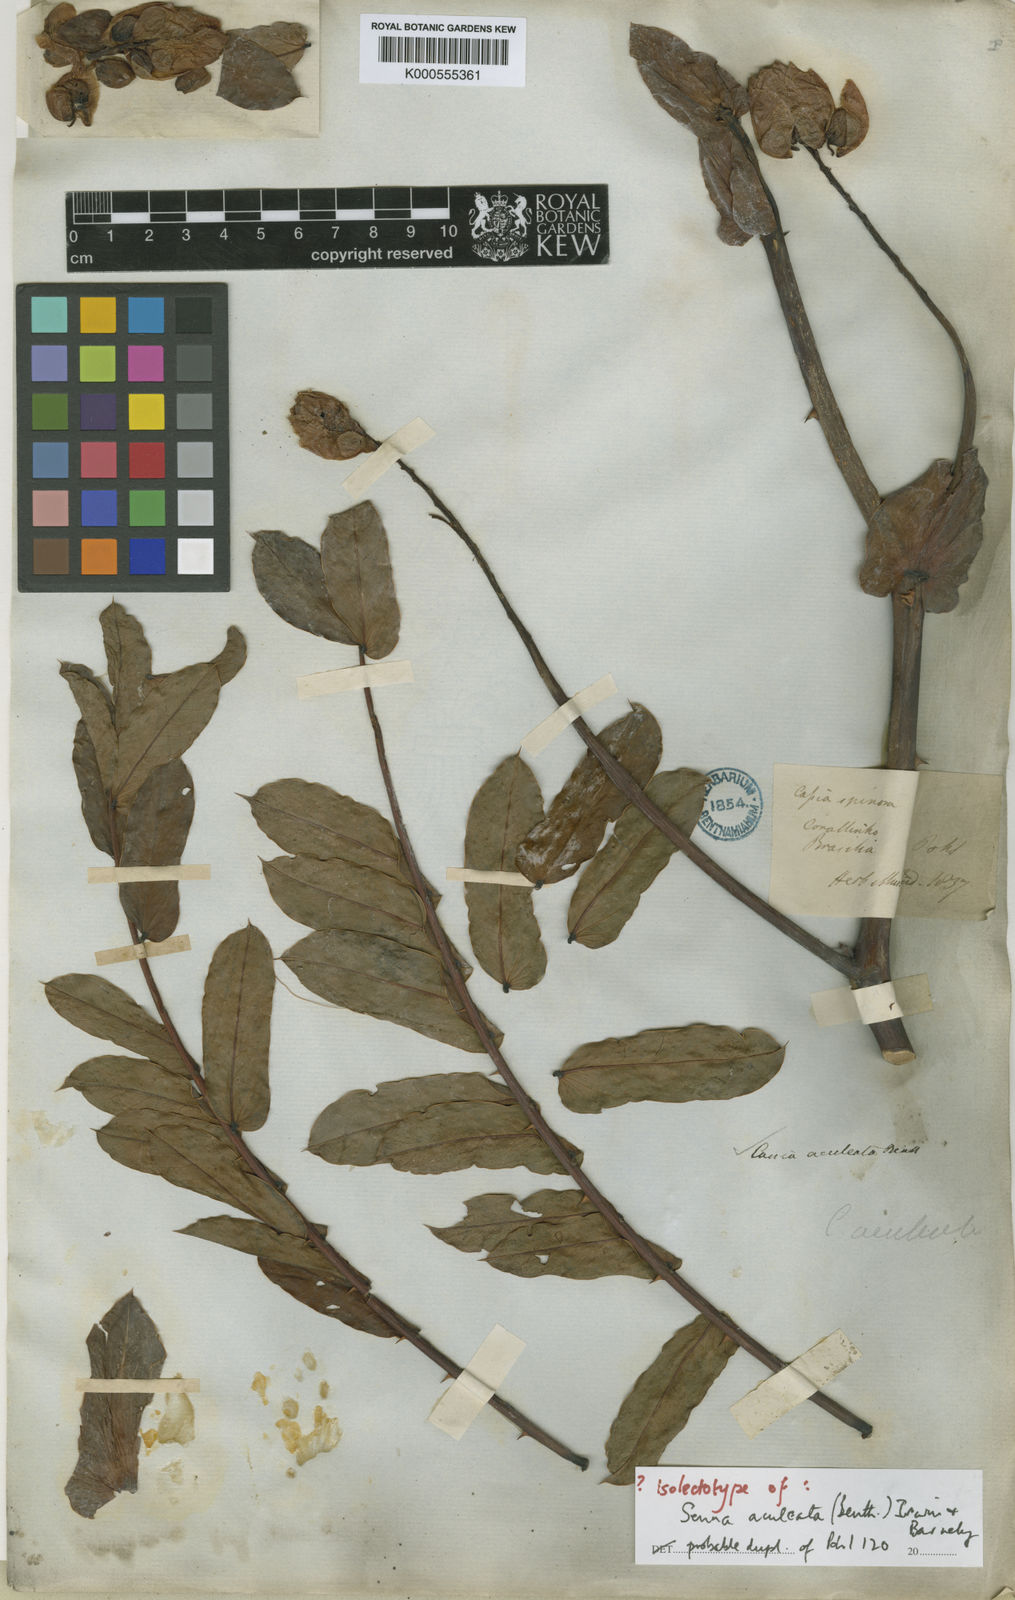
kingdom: Plantae
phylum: Tracheophyta
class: Magnoliopsida
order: Fabales
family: Fabaceae
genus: Senna
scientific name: Senna
